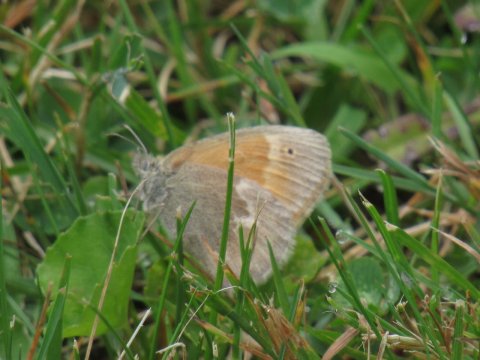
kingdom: Animalia
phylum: Arthropoda
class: Insecta
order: Lepidoptera
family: Nymphalidae
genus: Coenonympha
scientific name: Coenonympha tullia
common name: Large Heath
